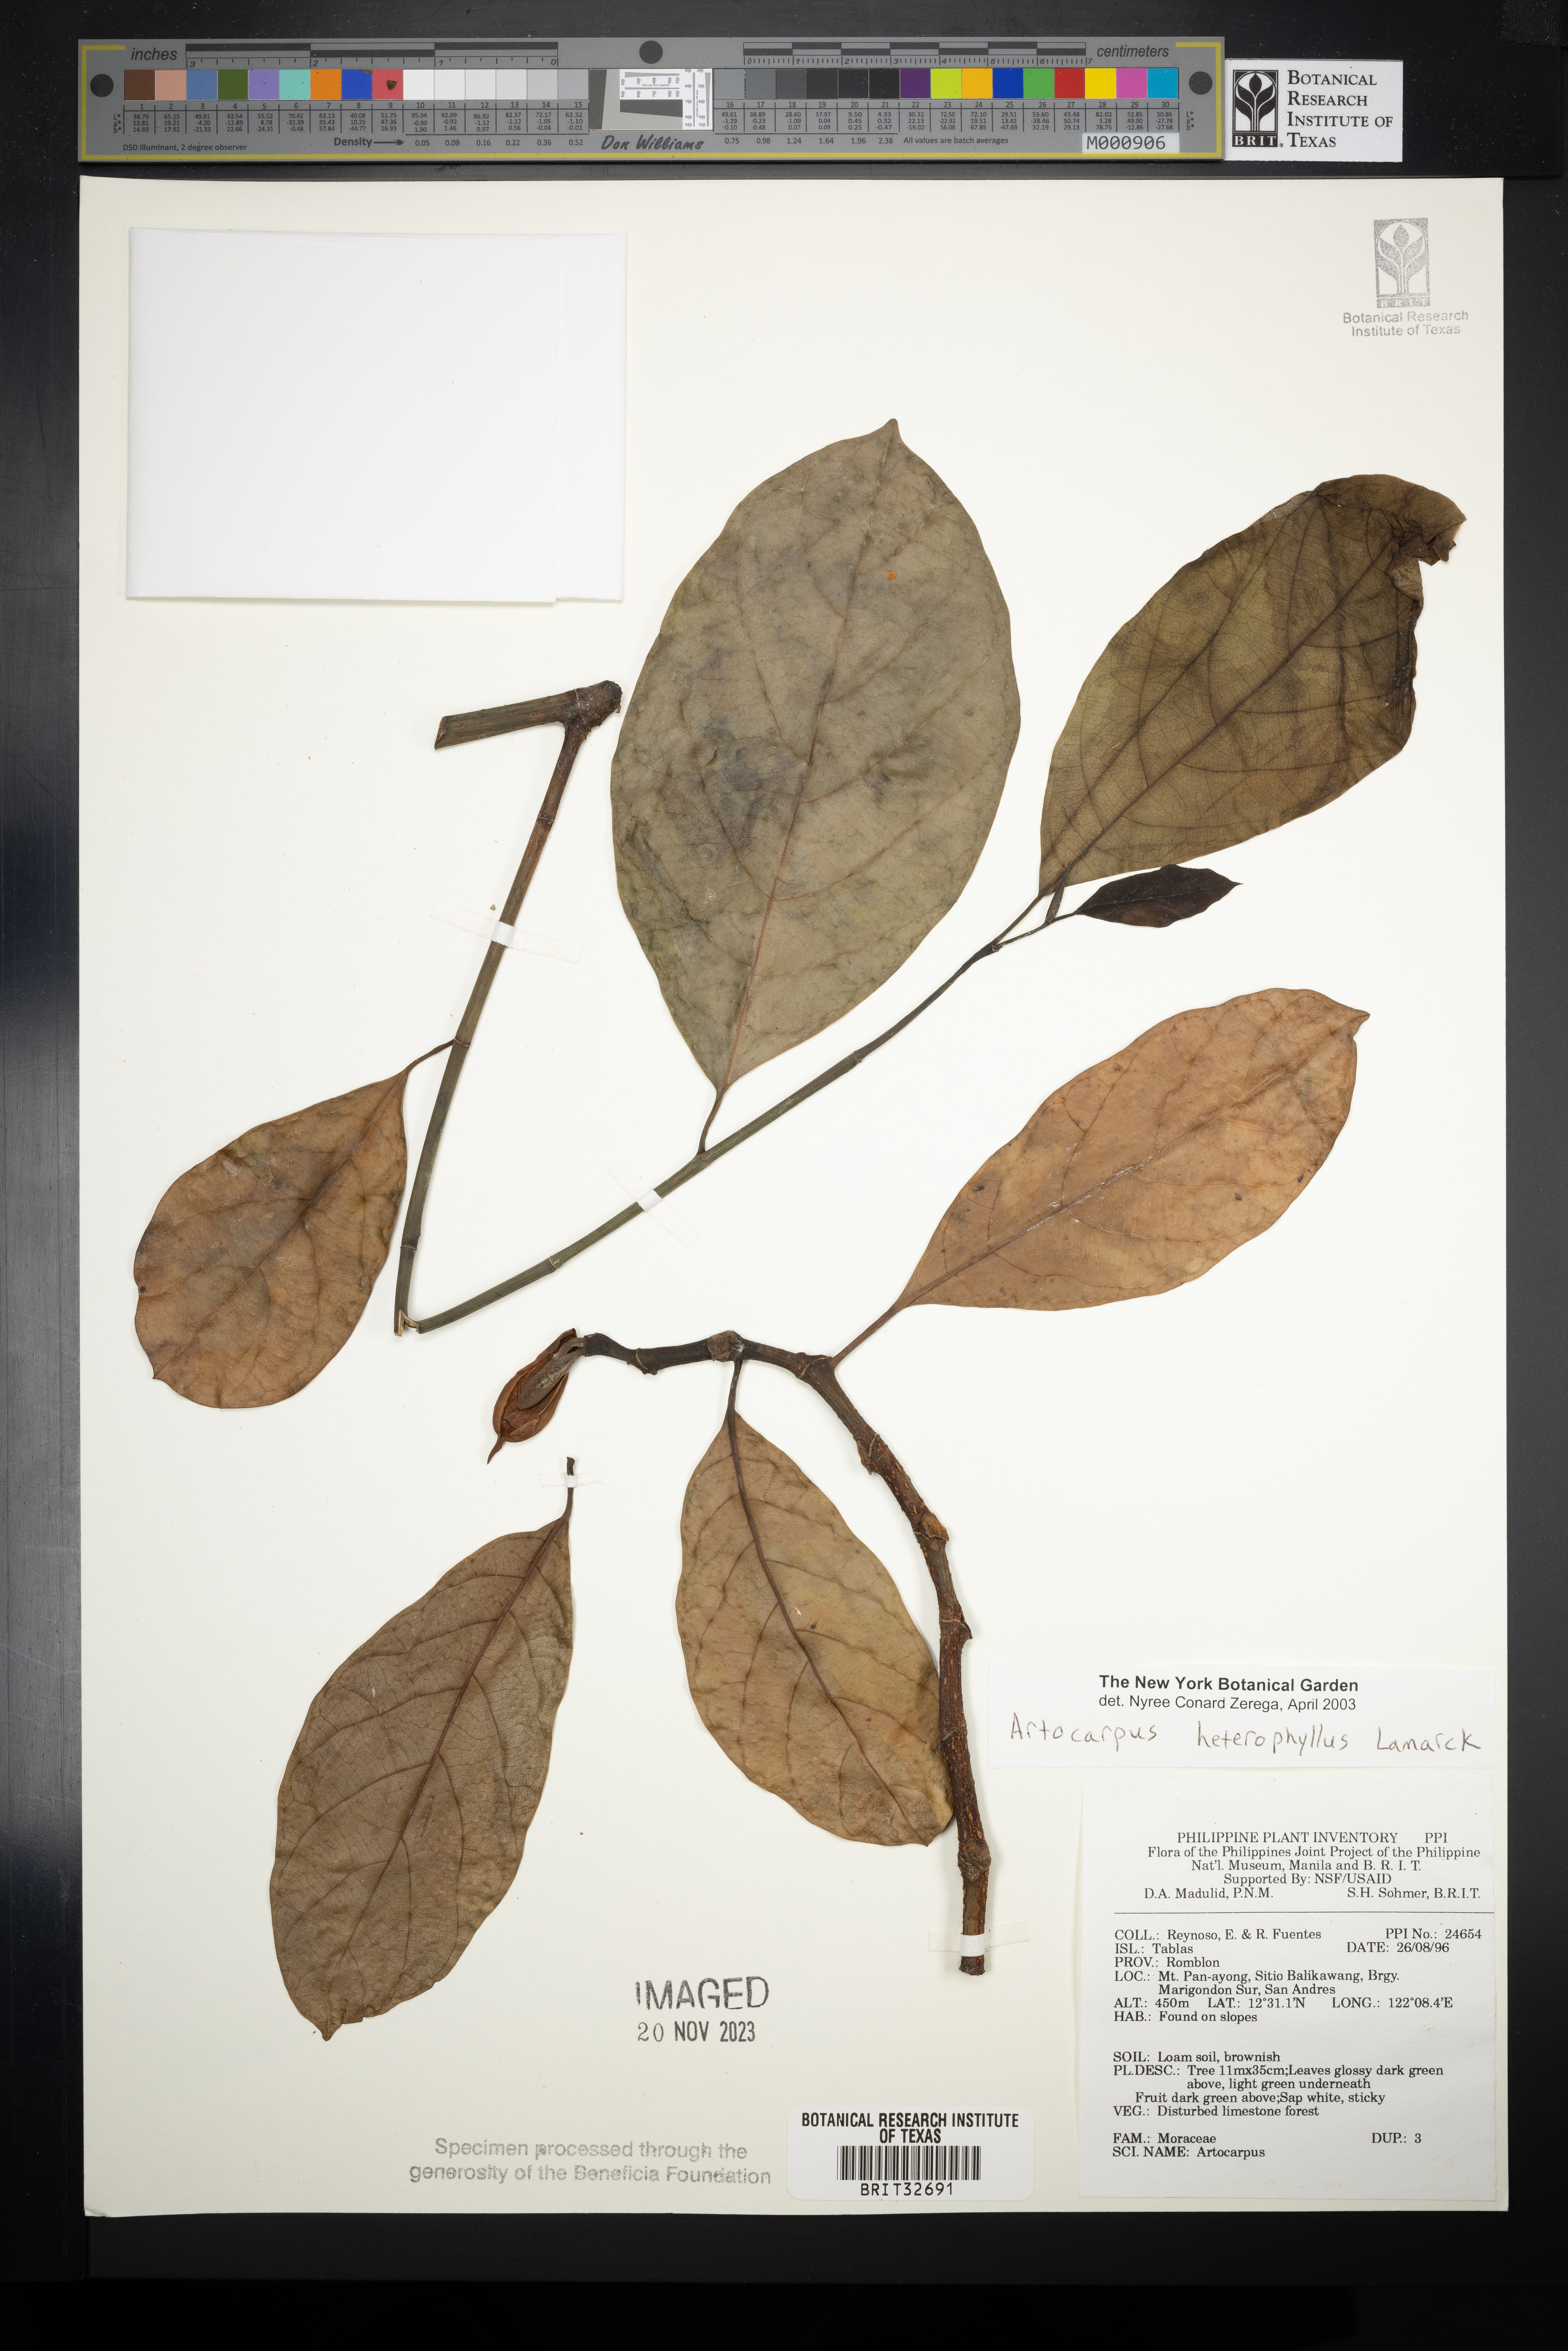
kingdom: Plantae
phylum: Tracheophyta
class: Magnoliopsida
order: Rosales
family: Moraceae
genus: Artocarpus
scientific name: Artocarpus heterophyllus
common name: Jackfruit
